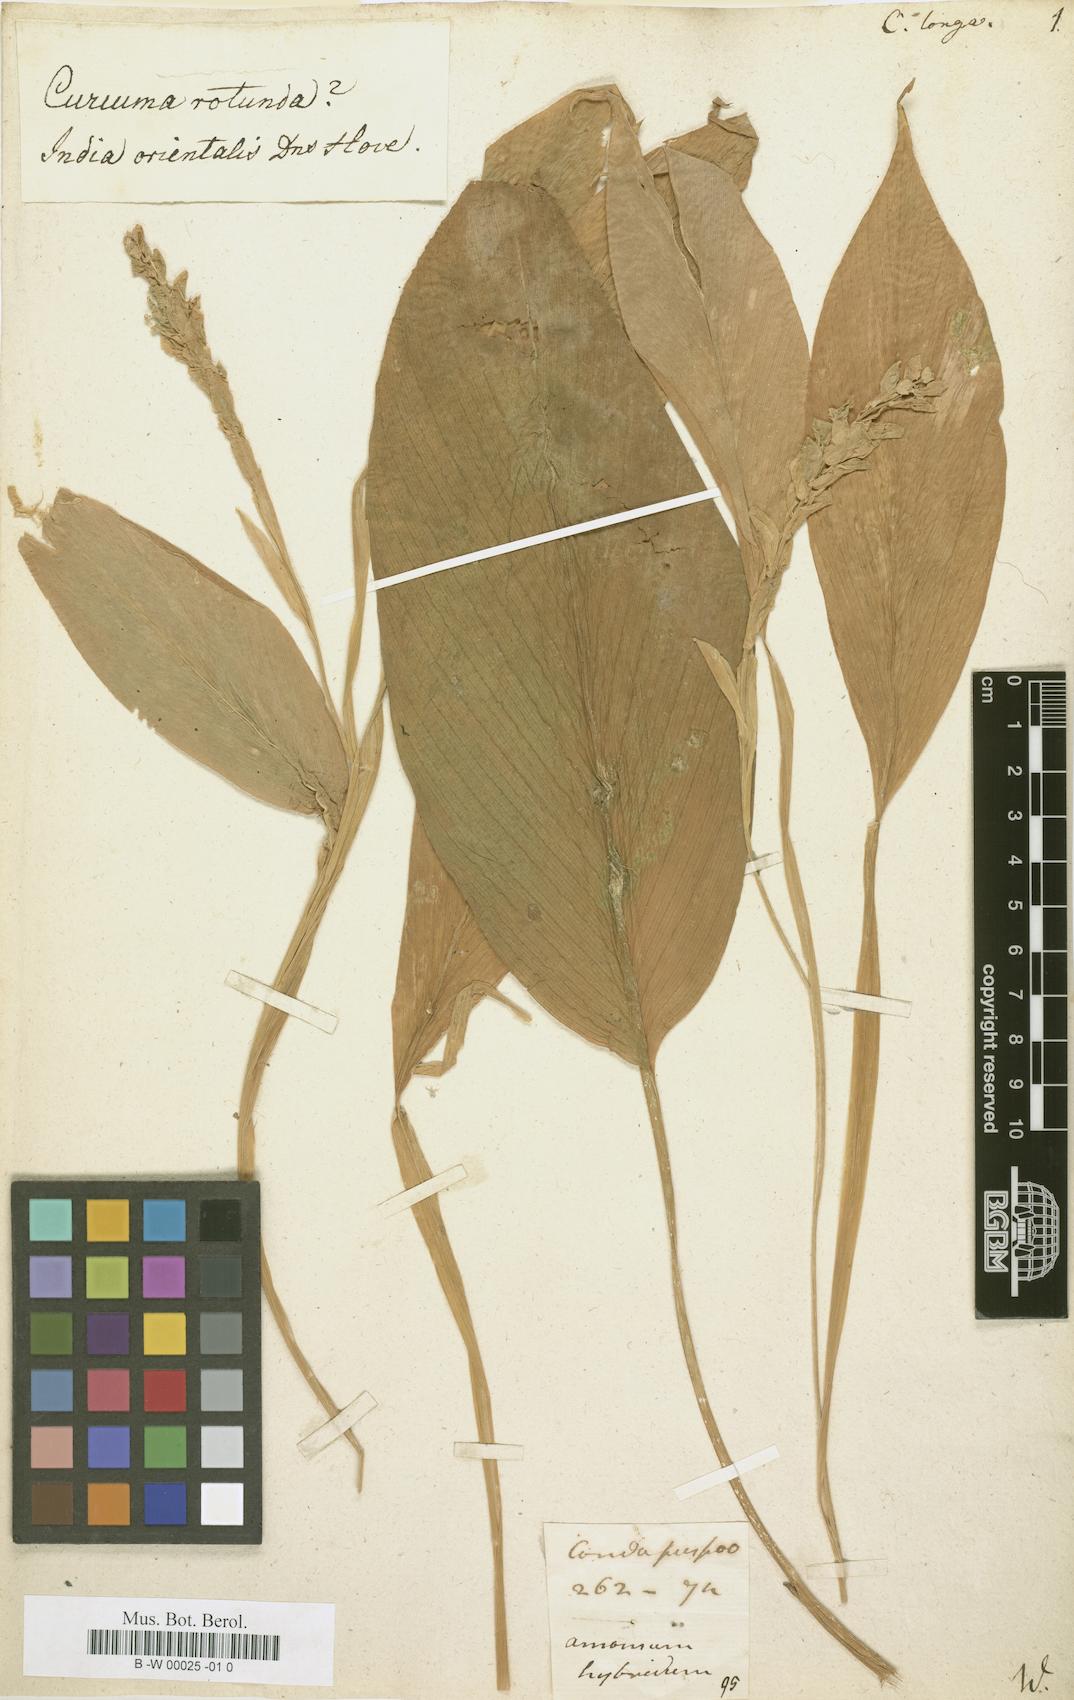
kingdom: Plantae
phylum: Tracheophyta
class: Liliopsida
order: Zingiberales
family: Zingiberaceae
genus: Curcuma
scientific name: Curcuma longa
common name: Turmeric
